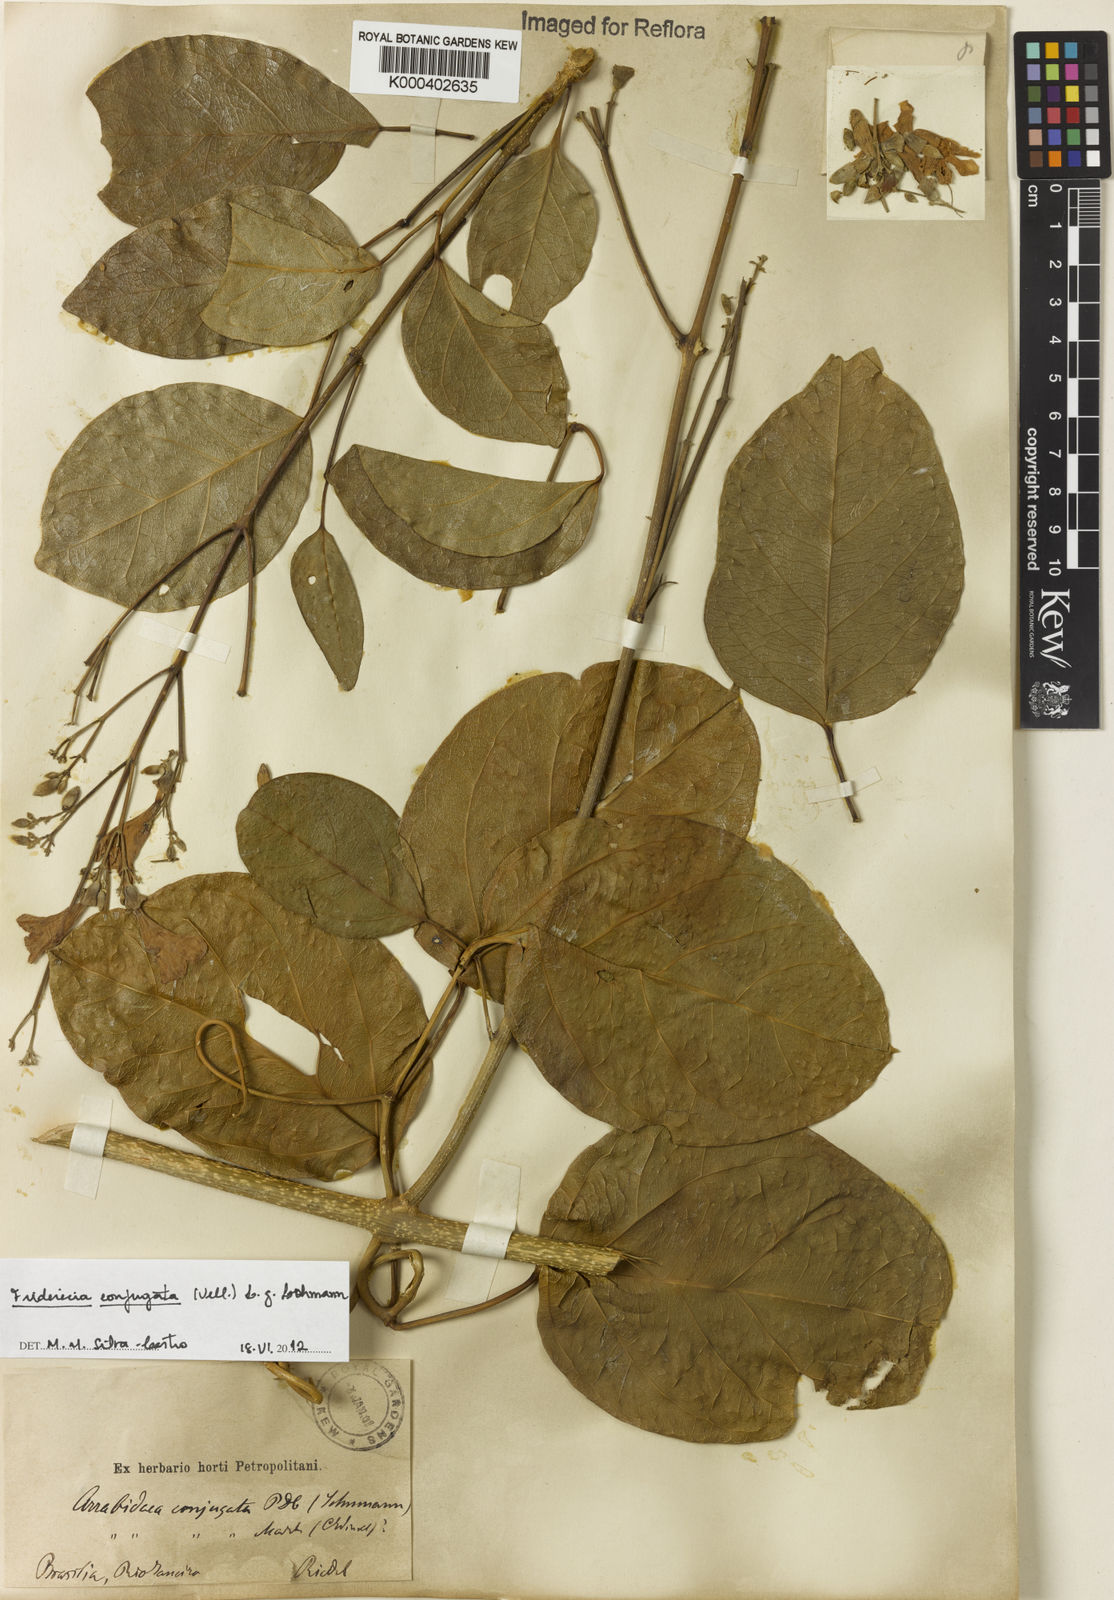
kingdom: Plantae
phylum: Tracheophyta
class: Magnoliopsida
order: Lamiales
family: Bignoniaceae
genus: Fridericia
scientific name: Fridericia conjugata
